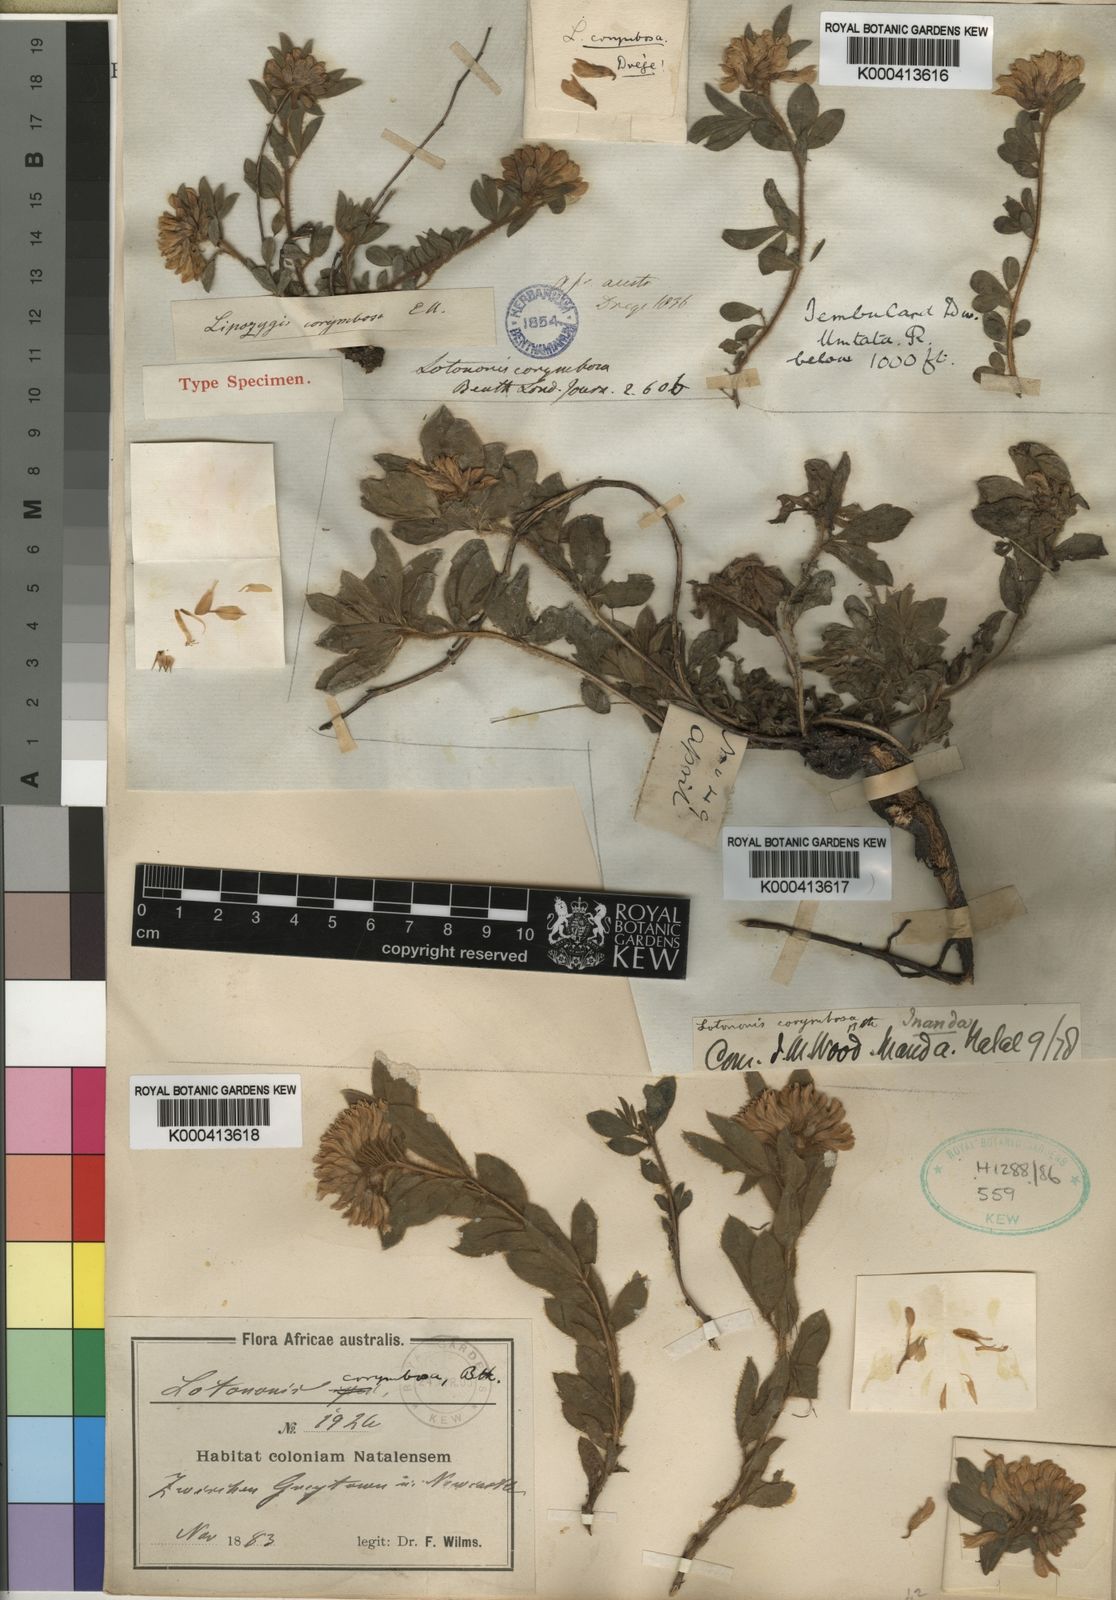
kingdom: Plantae
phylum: Tracheophyta
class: Magnoliopsida
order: Fabales
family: Fabaceae
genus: Leobordea
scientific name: Leobordea corymbosa
